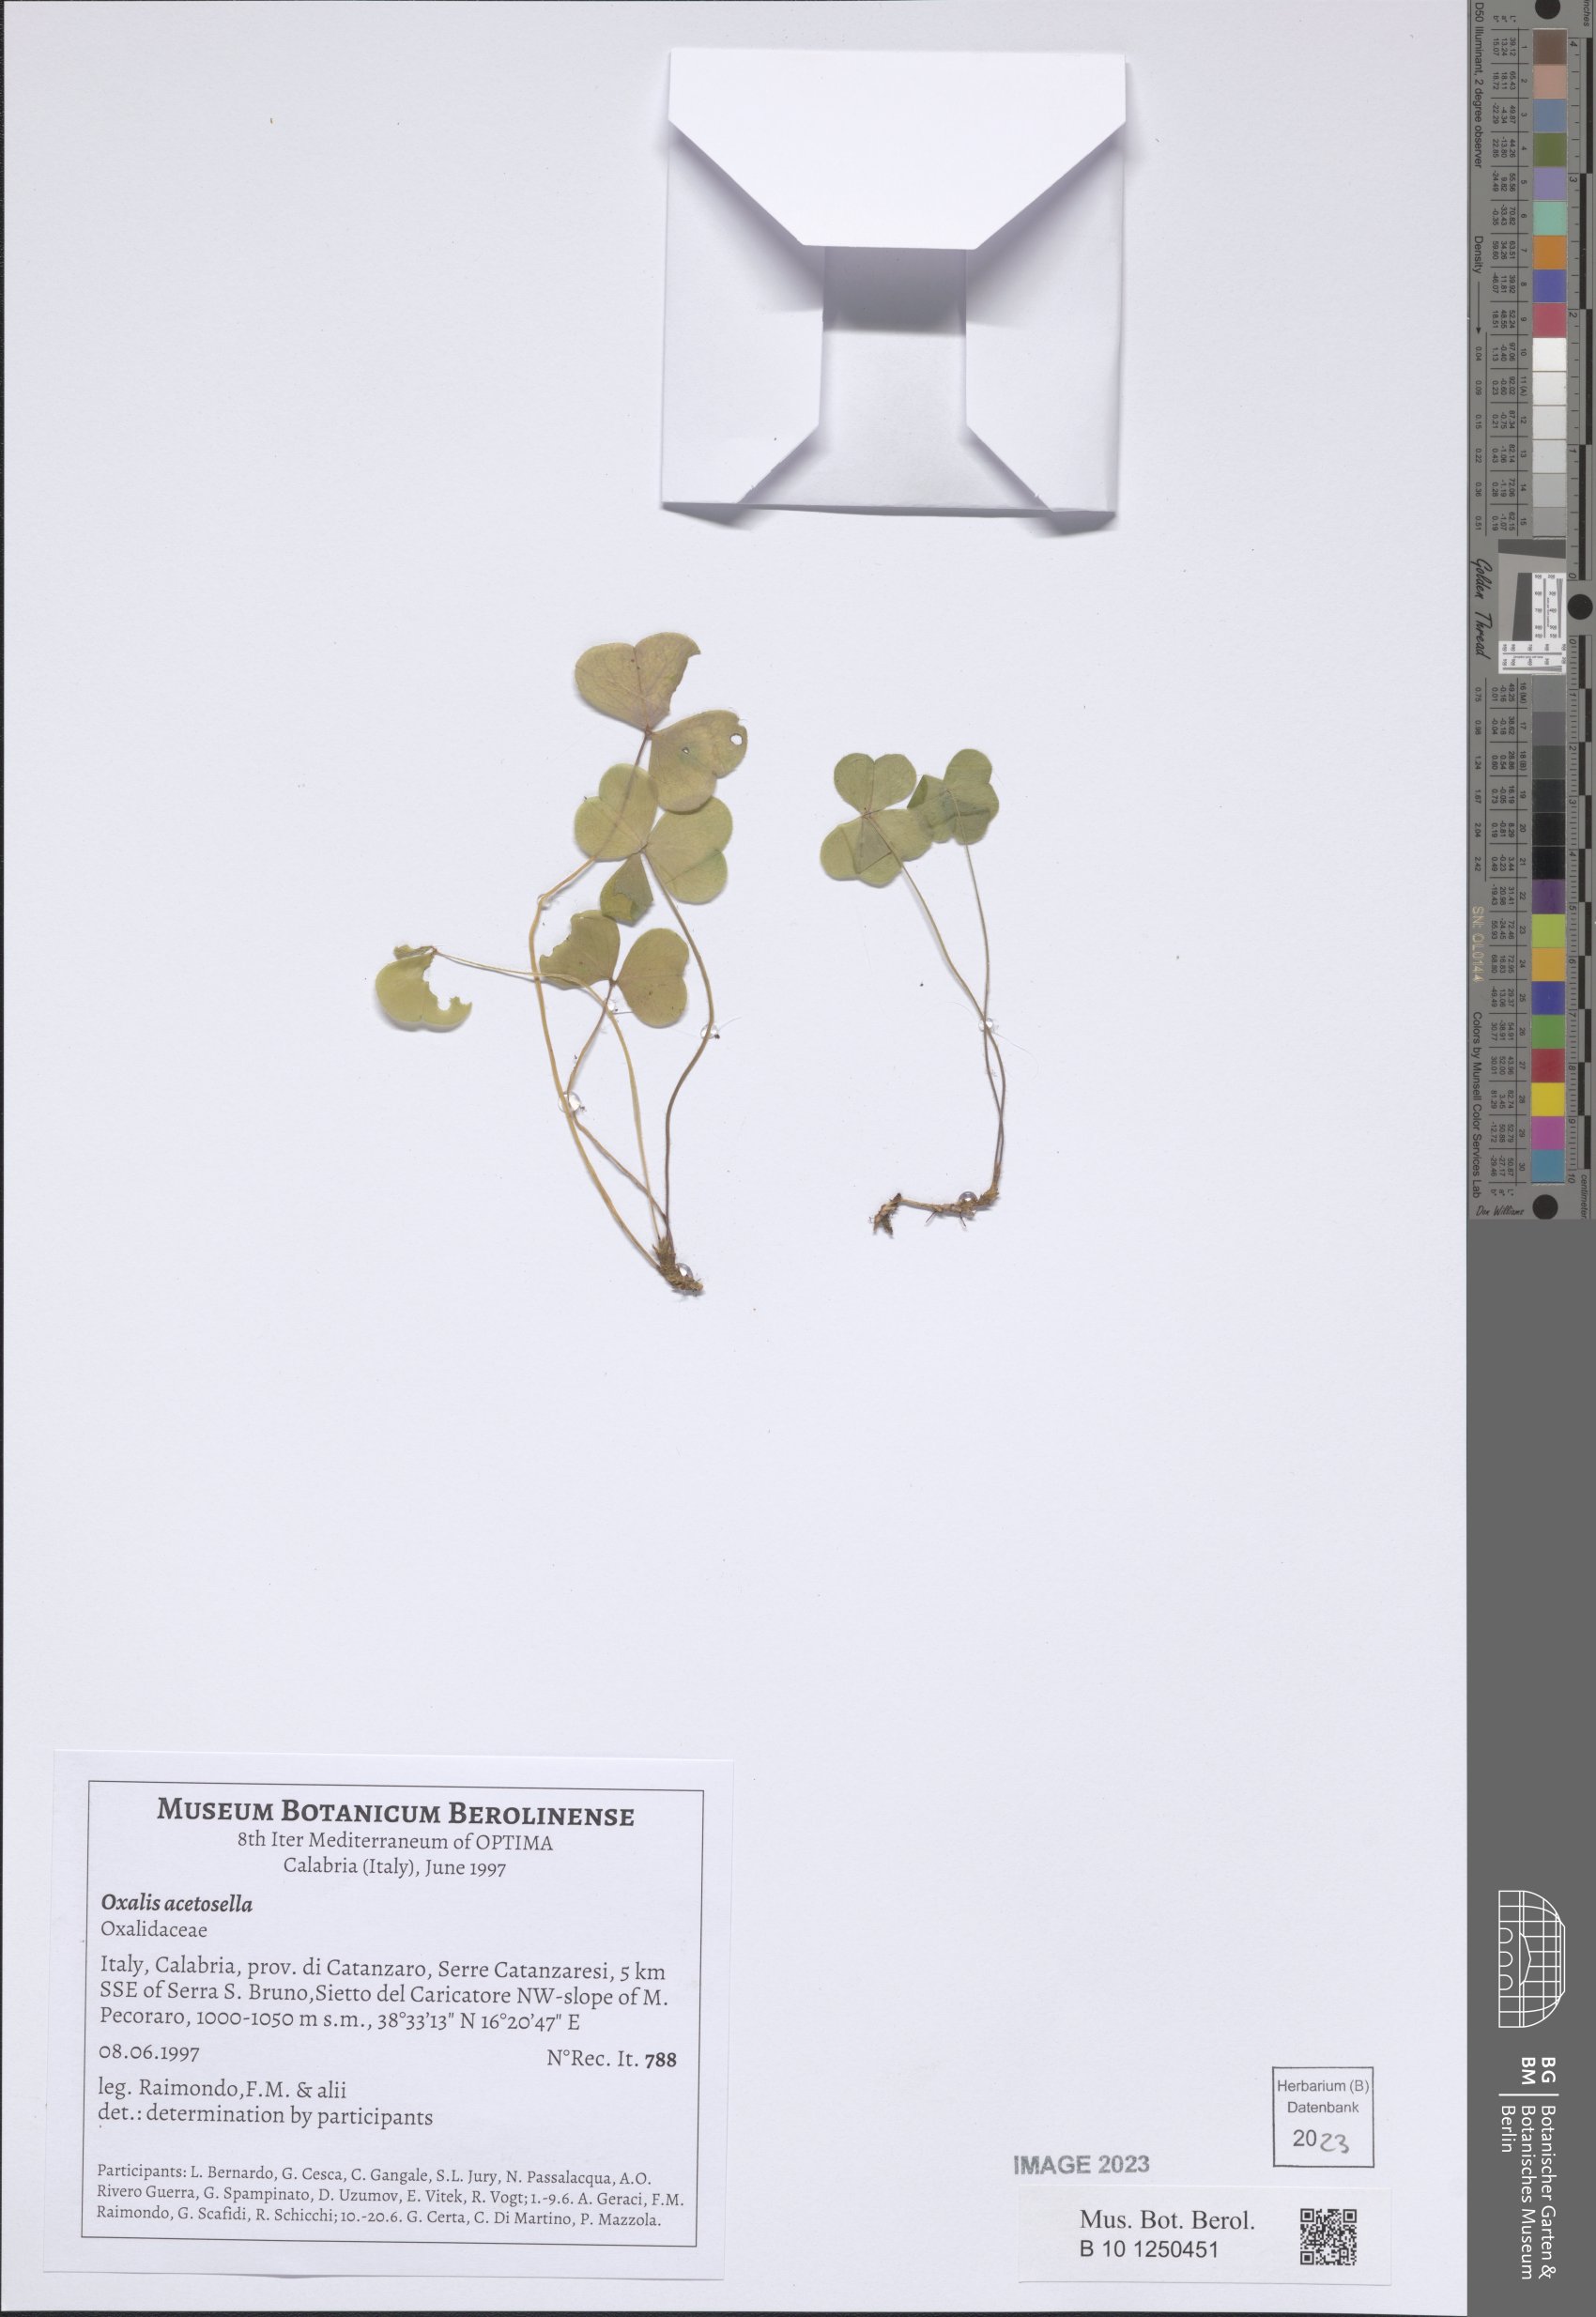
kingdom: Plantae
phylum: Tracheophyta
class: Magnoliopsida
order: Oxalidales
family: Oxalidaceae
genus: Oxalis
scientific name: Oxalis acetosella
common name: Wood-sorrel
